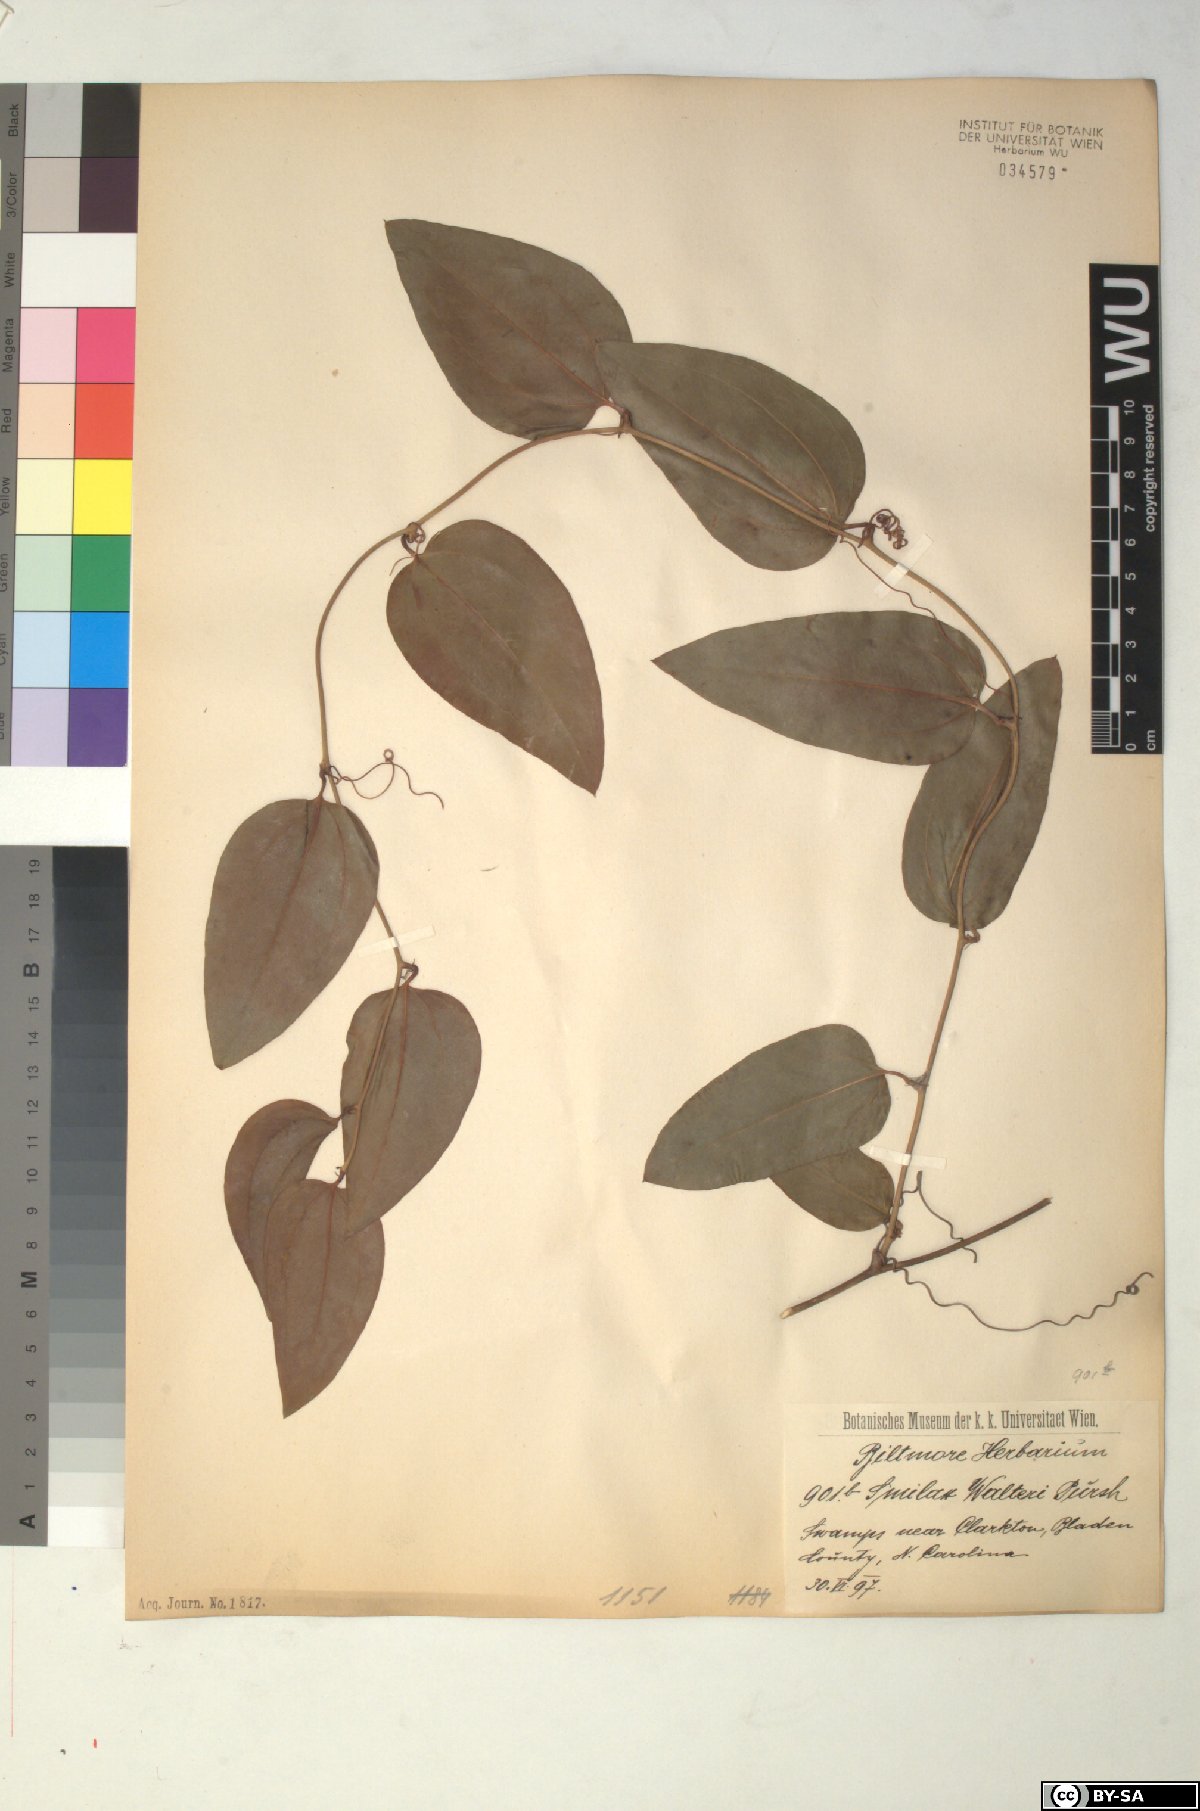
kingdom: Plantae
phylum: Tracheophyta
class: Liliopsida
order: Liliales
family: Smilacaceae
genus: Smilax
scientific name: Smilax walteri
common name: Coral greenbrier
